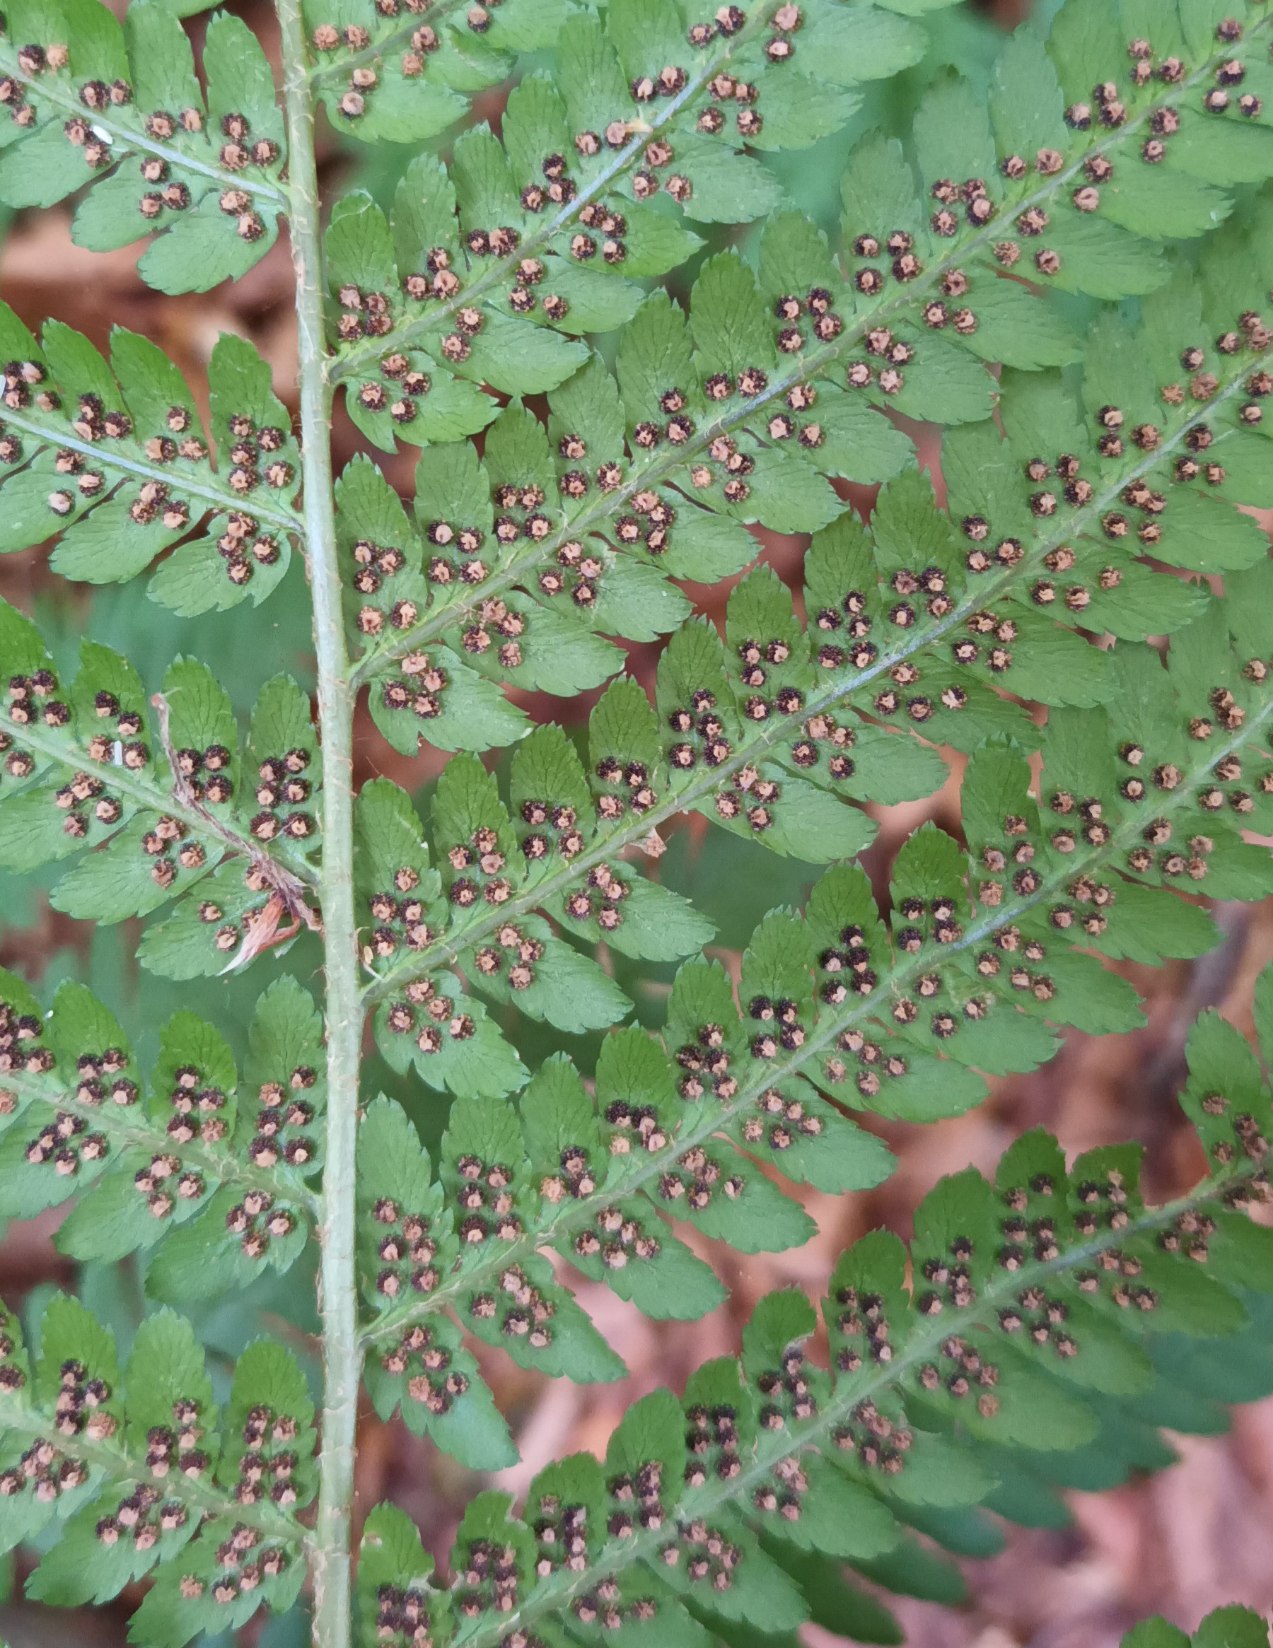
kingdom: Plantae
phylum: Tracheophyta
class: Polypodiopsida
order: Polypodiales
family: Dryopteridaceae
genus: Dryopteris
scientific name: Dryopteris filix-mas
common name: Almindelig mangeløv
